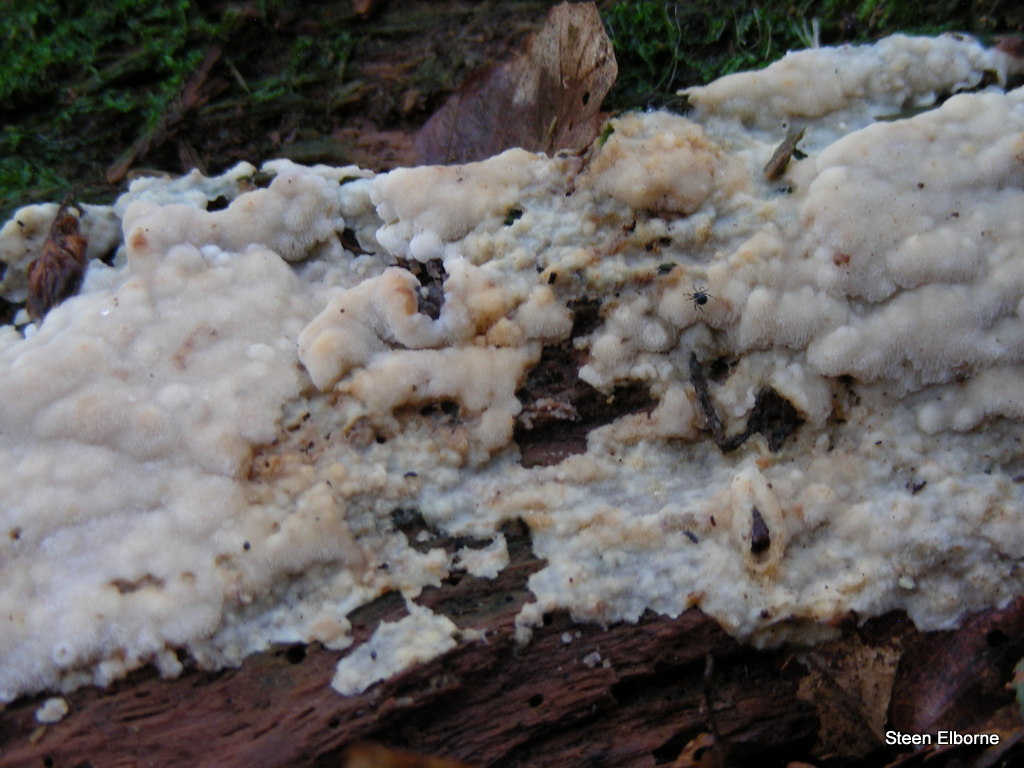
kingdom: Fungi
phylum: Basidiomycota
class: Agaricomycetes
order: Polyporales
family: Meruliaceae
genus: Physisporinus
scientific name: Physisporinus vitreus
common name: mastesvamp
